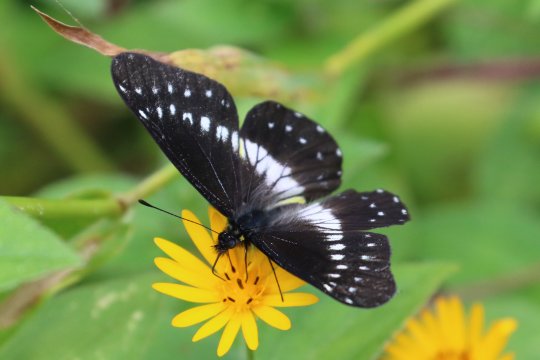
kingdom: Animalia
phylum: Arthropoda
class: Insecta
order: Lepidoptera
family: Pieridae
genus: Catasticta
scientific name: Catasticta flisa
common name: Narrow-banded Dartwhite
